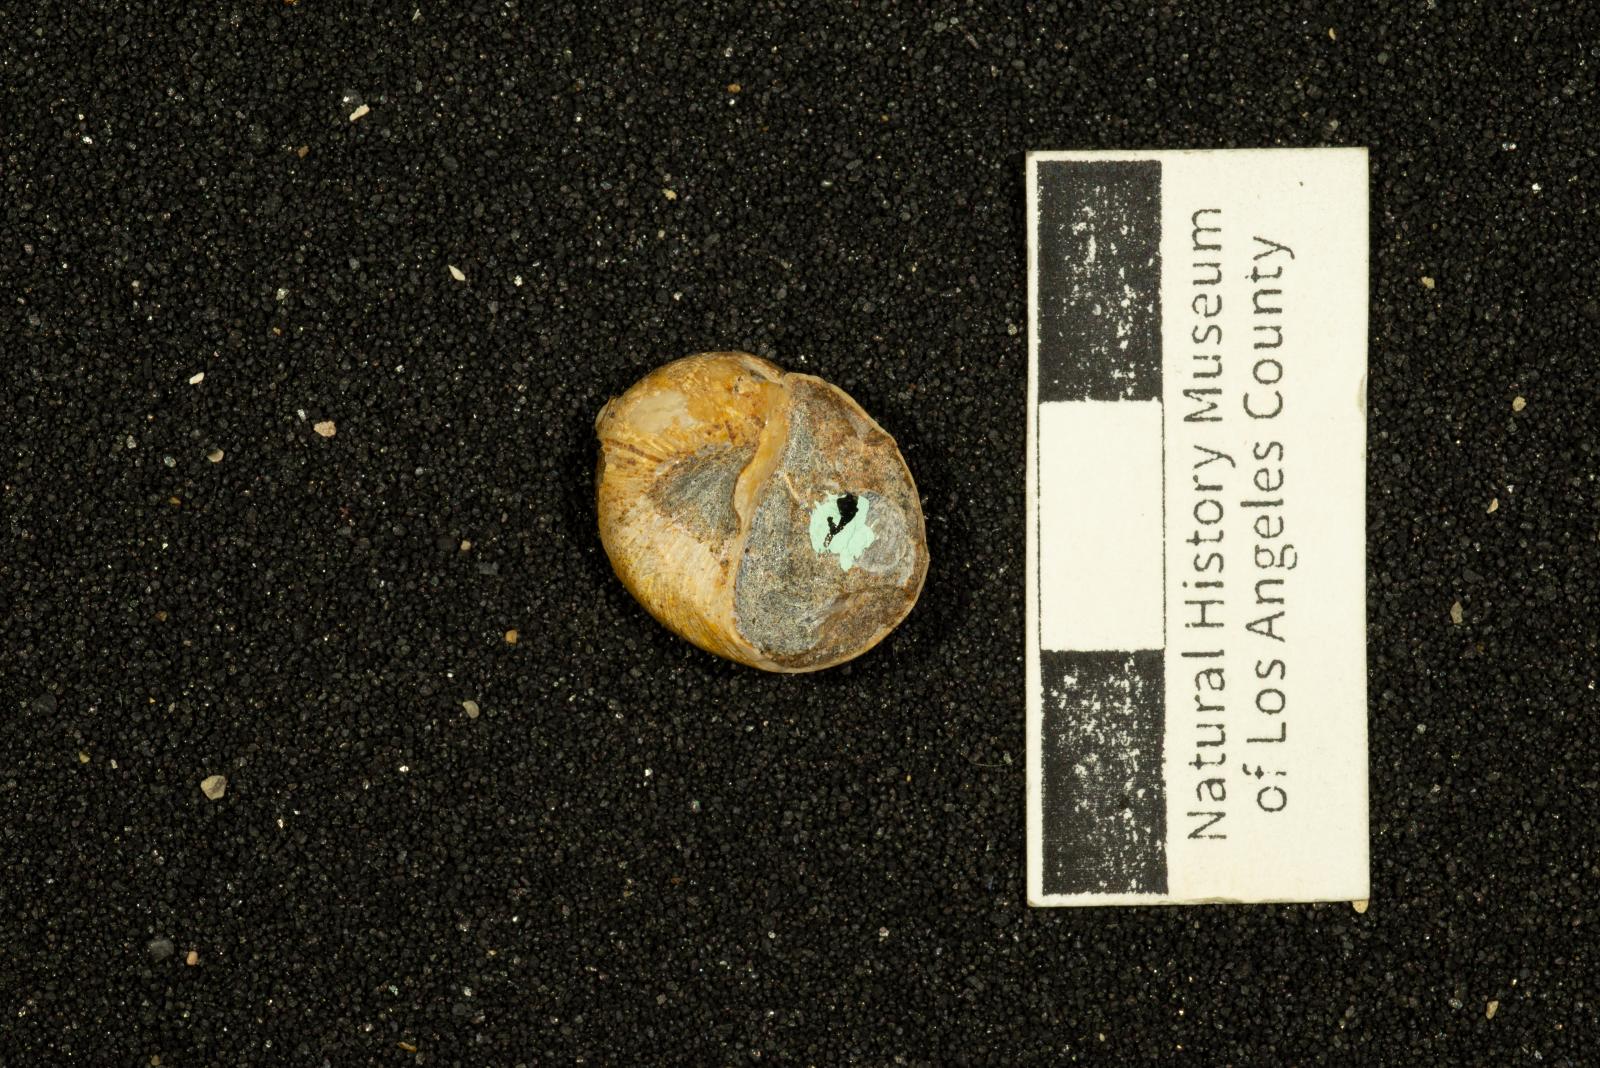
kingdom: Animalia
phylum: Mollusca
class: Gastropoda
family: Gyrodidae
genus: Gyrodes
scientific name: Gyrodes quercus
